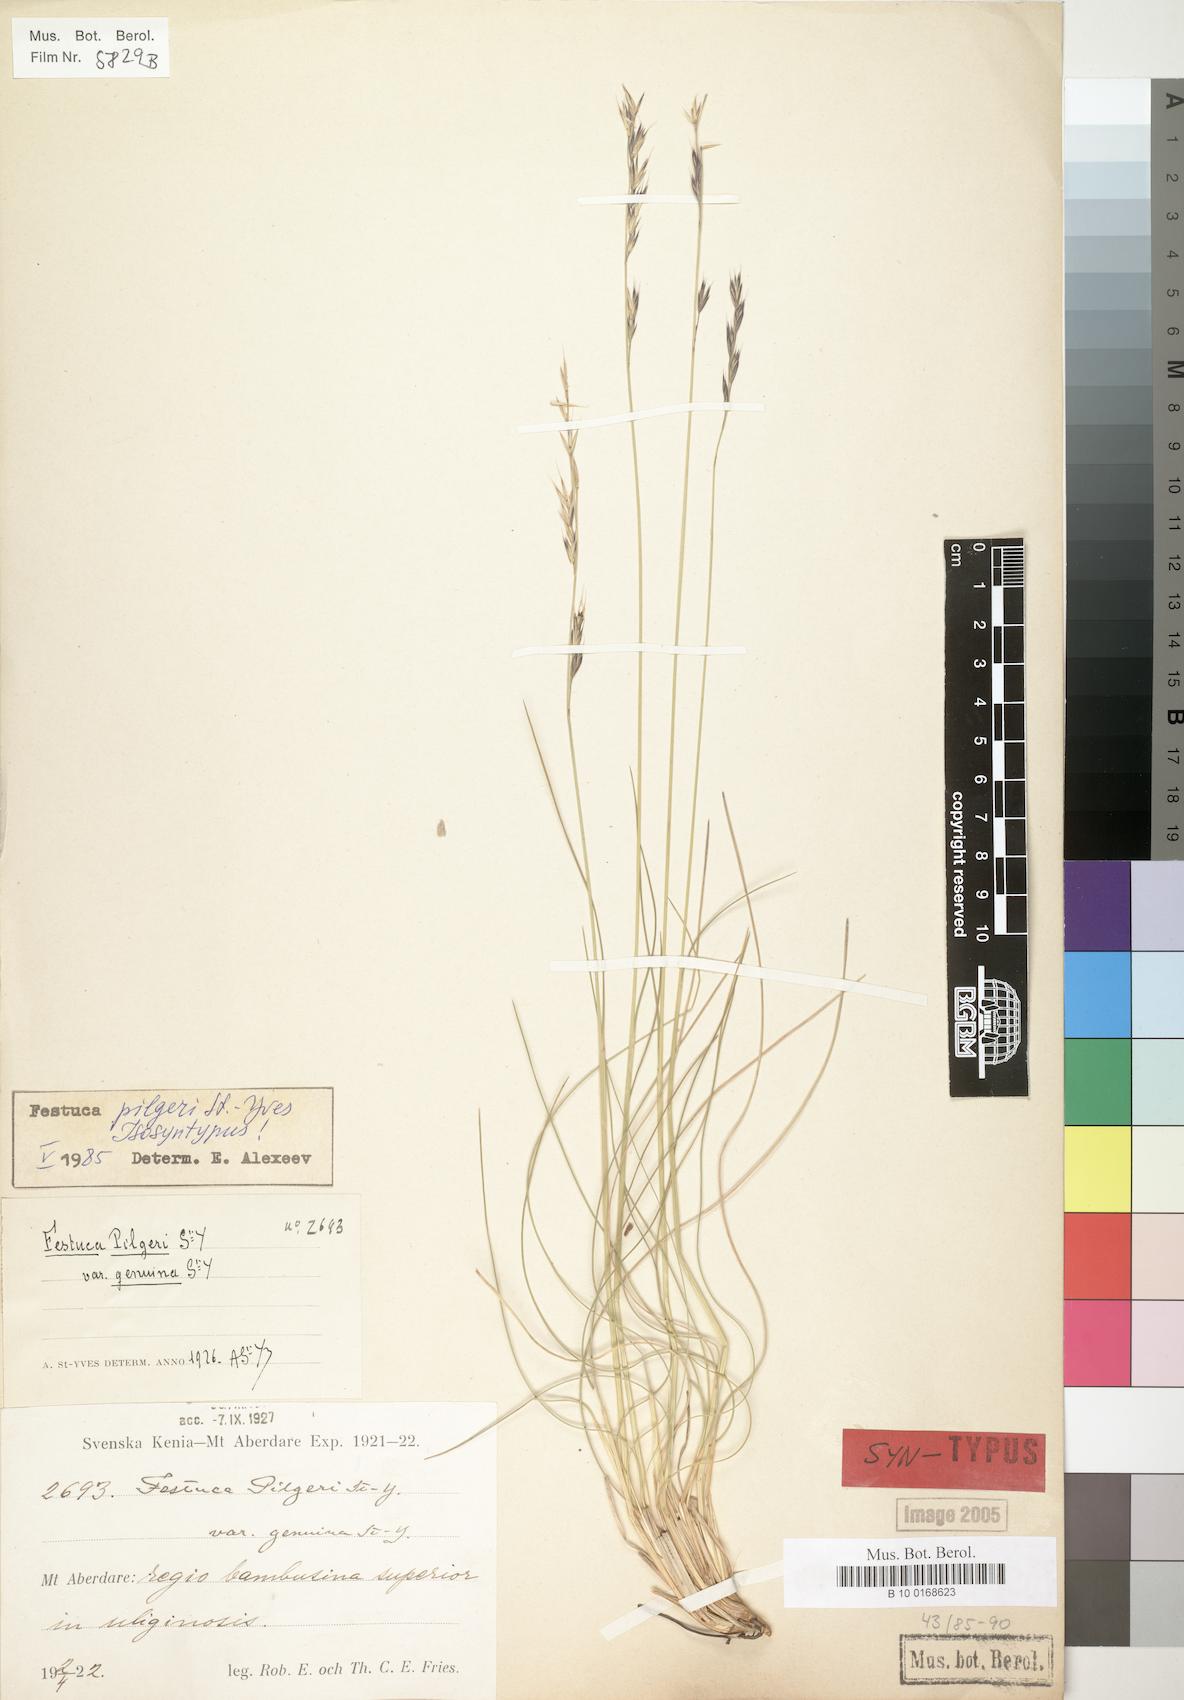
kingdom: Plantae
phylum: Tracheophyta
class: Liliopsida
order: Poales
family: Poaceae
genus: Festuca
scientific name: Festuca pilgeri
